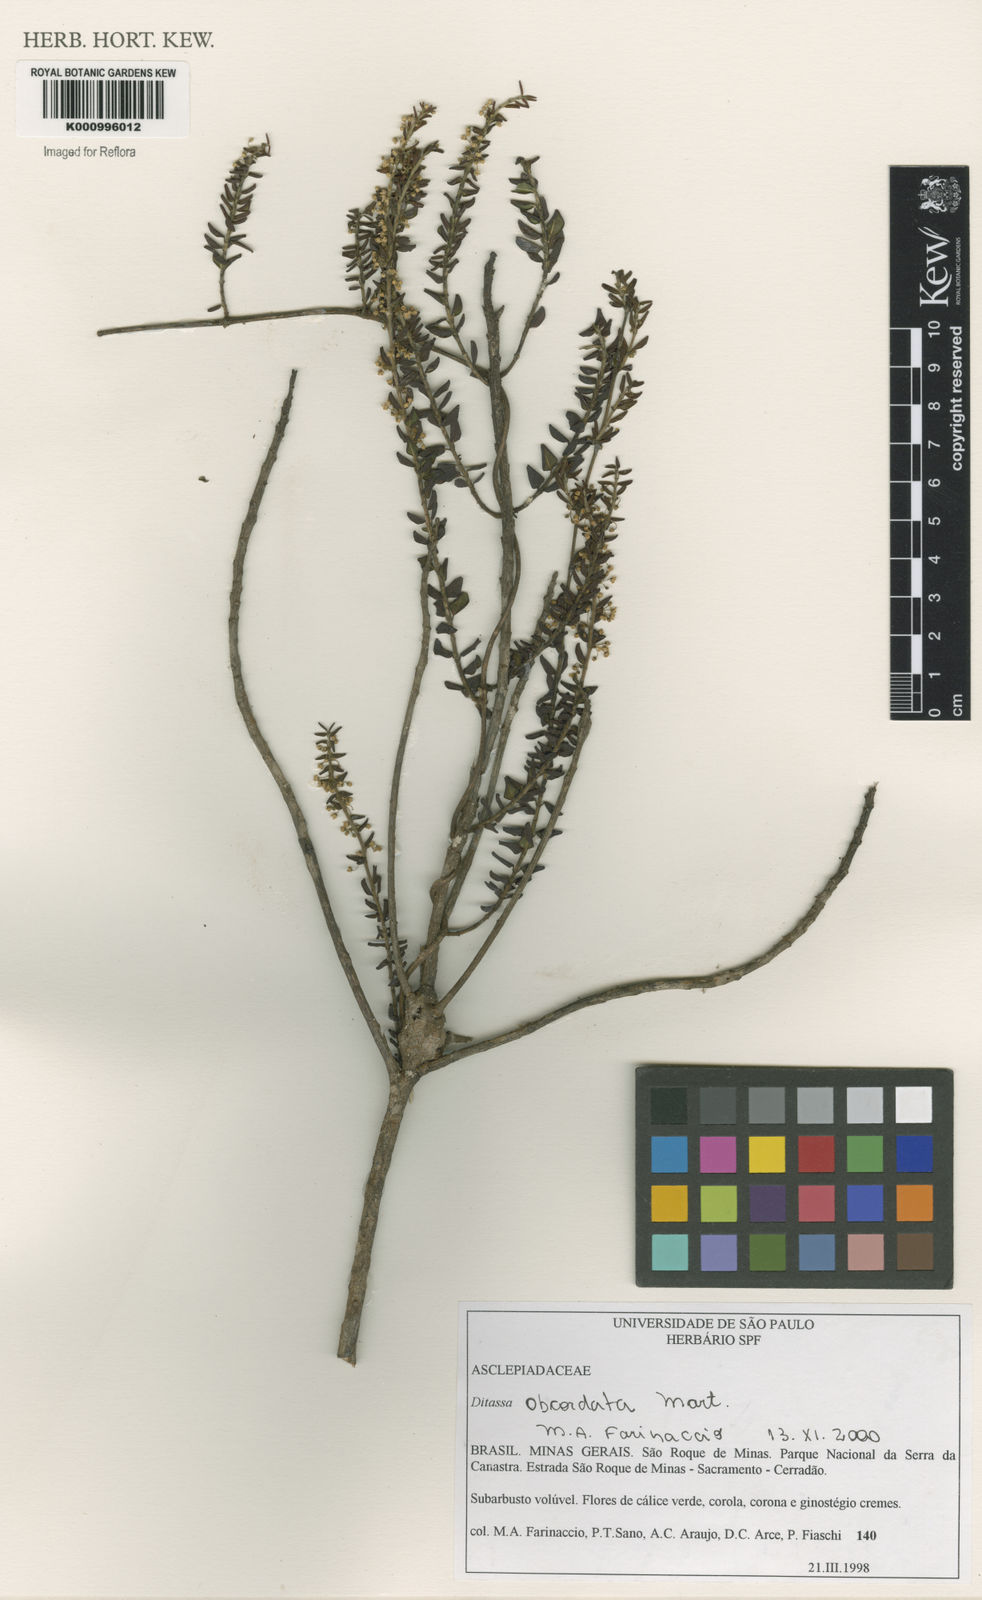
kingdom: Plantae
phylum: Tracheophyta
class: Magnoliopsida
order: Gentianales
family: Apocynaceae
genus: Ditassa
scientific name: Ditassa obcordata
